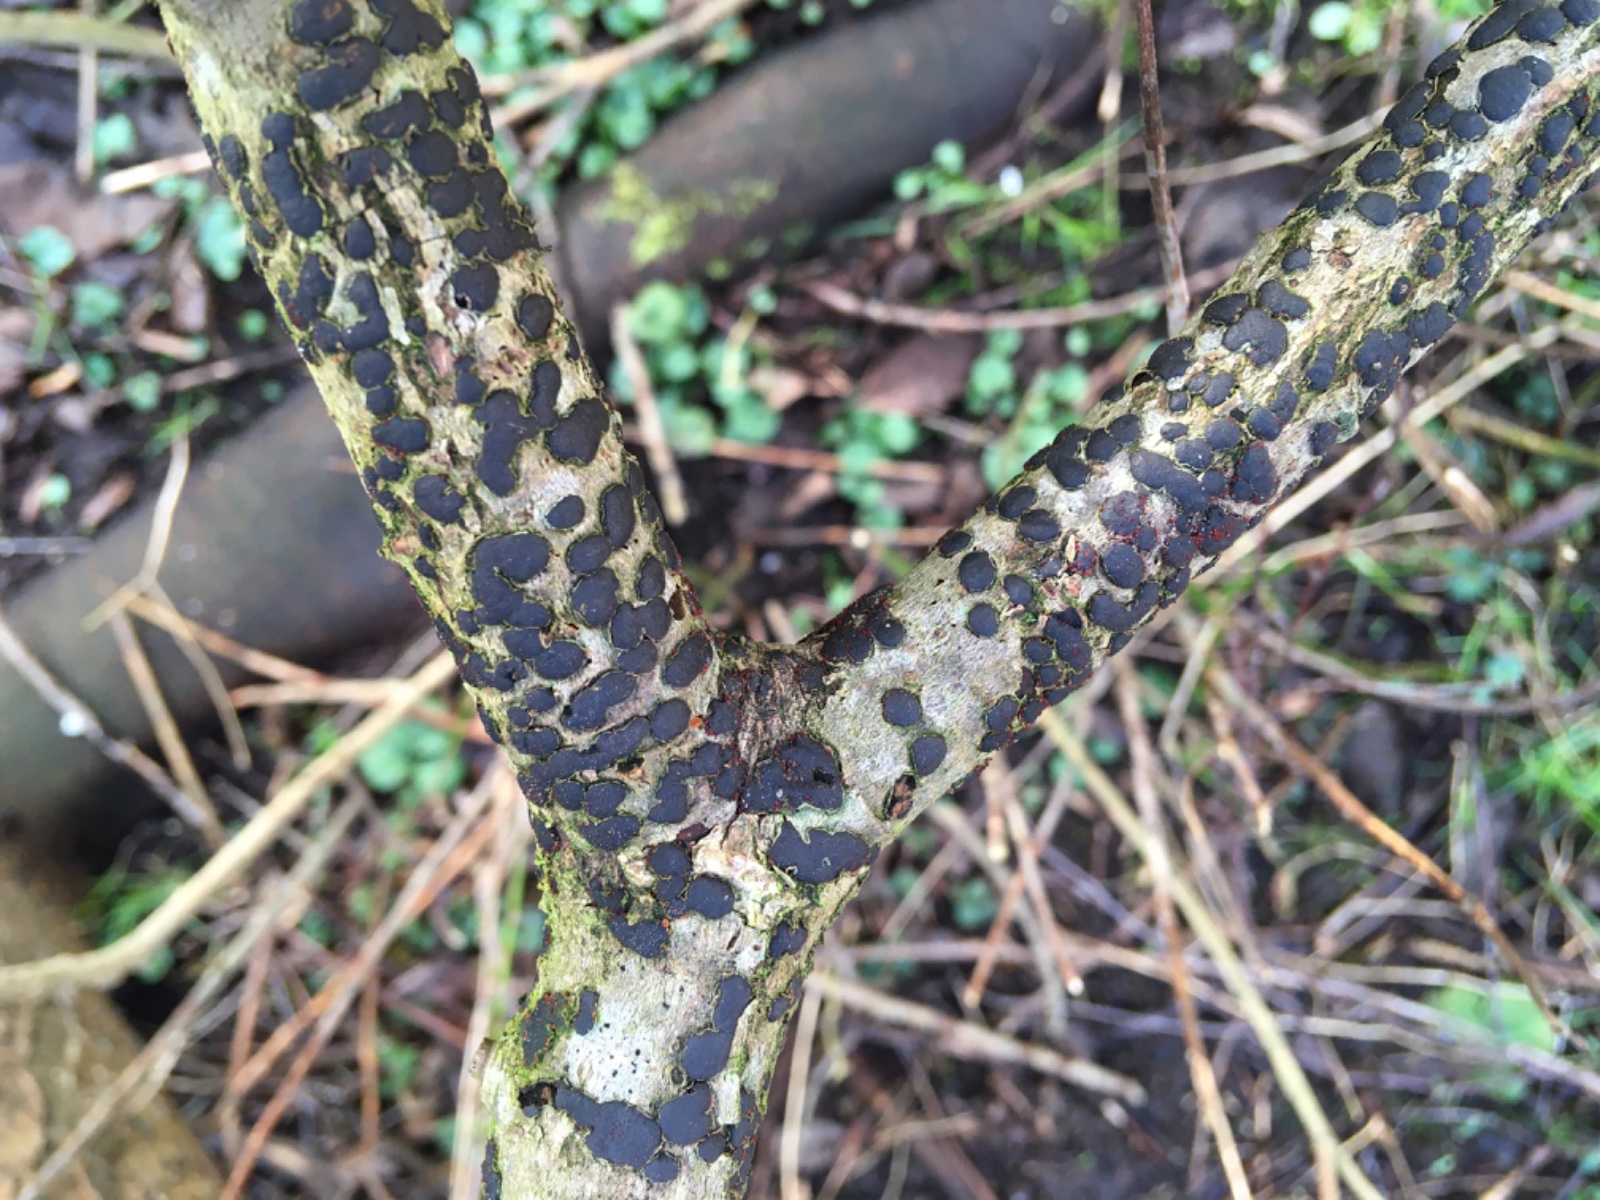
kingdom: Fungi
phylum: Ascomycota
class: Sordariomycetes
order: Xylariales
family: Diatrypaceae
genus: Diatrype
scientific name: Diatrype bullata
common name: pile-kulskorpe
